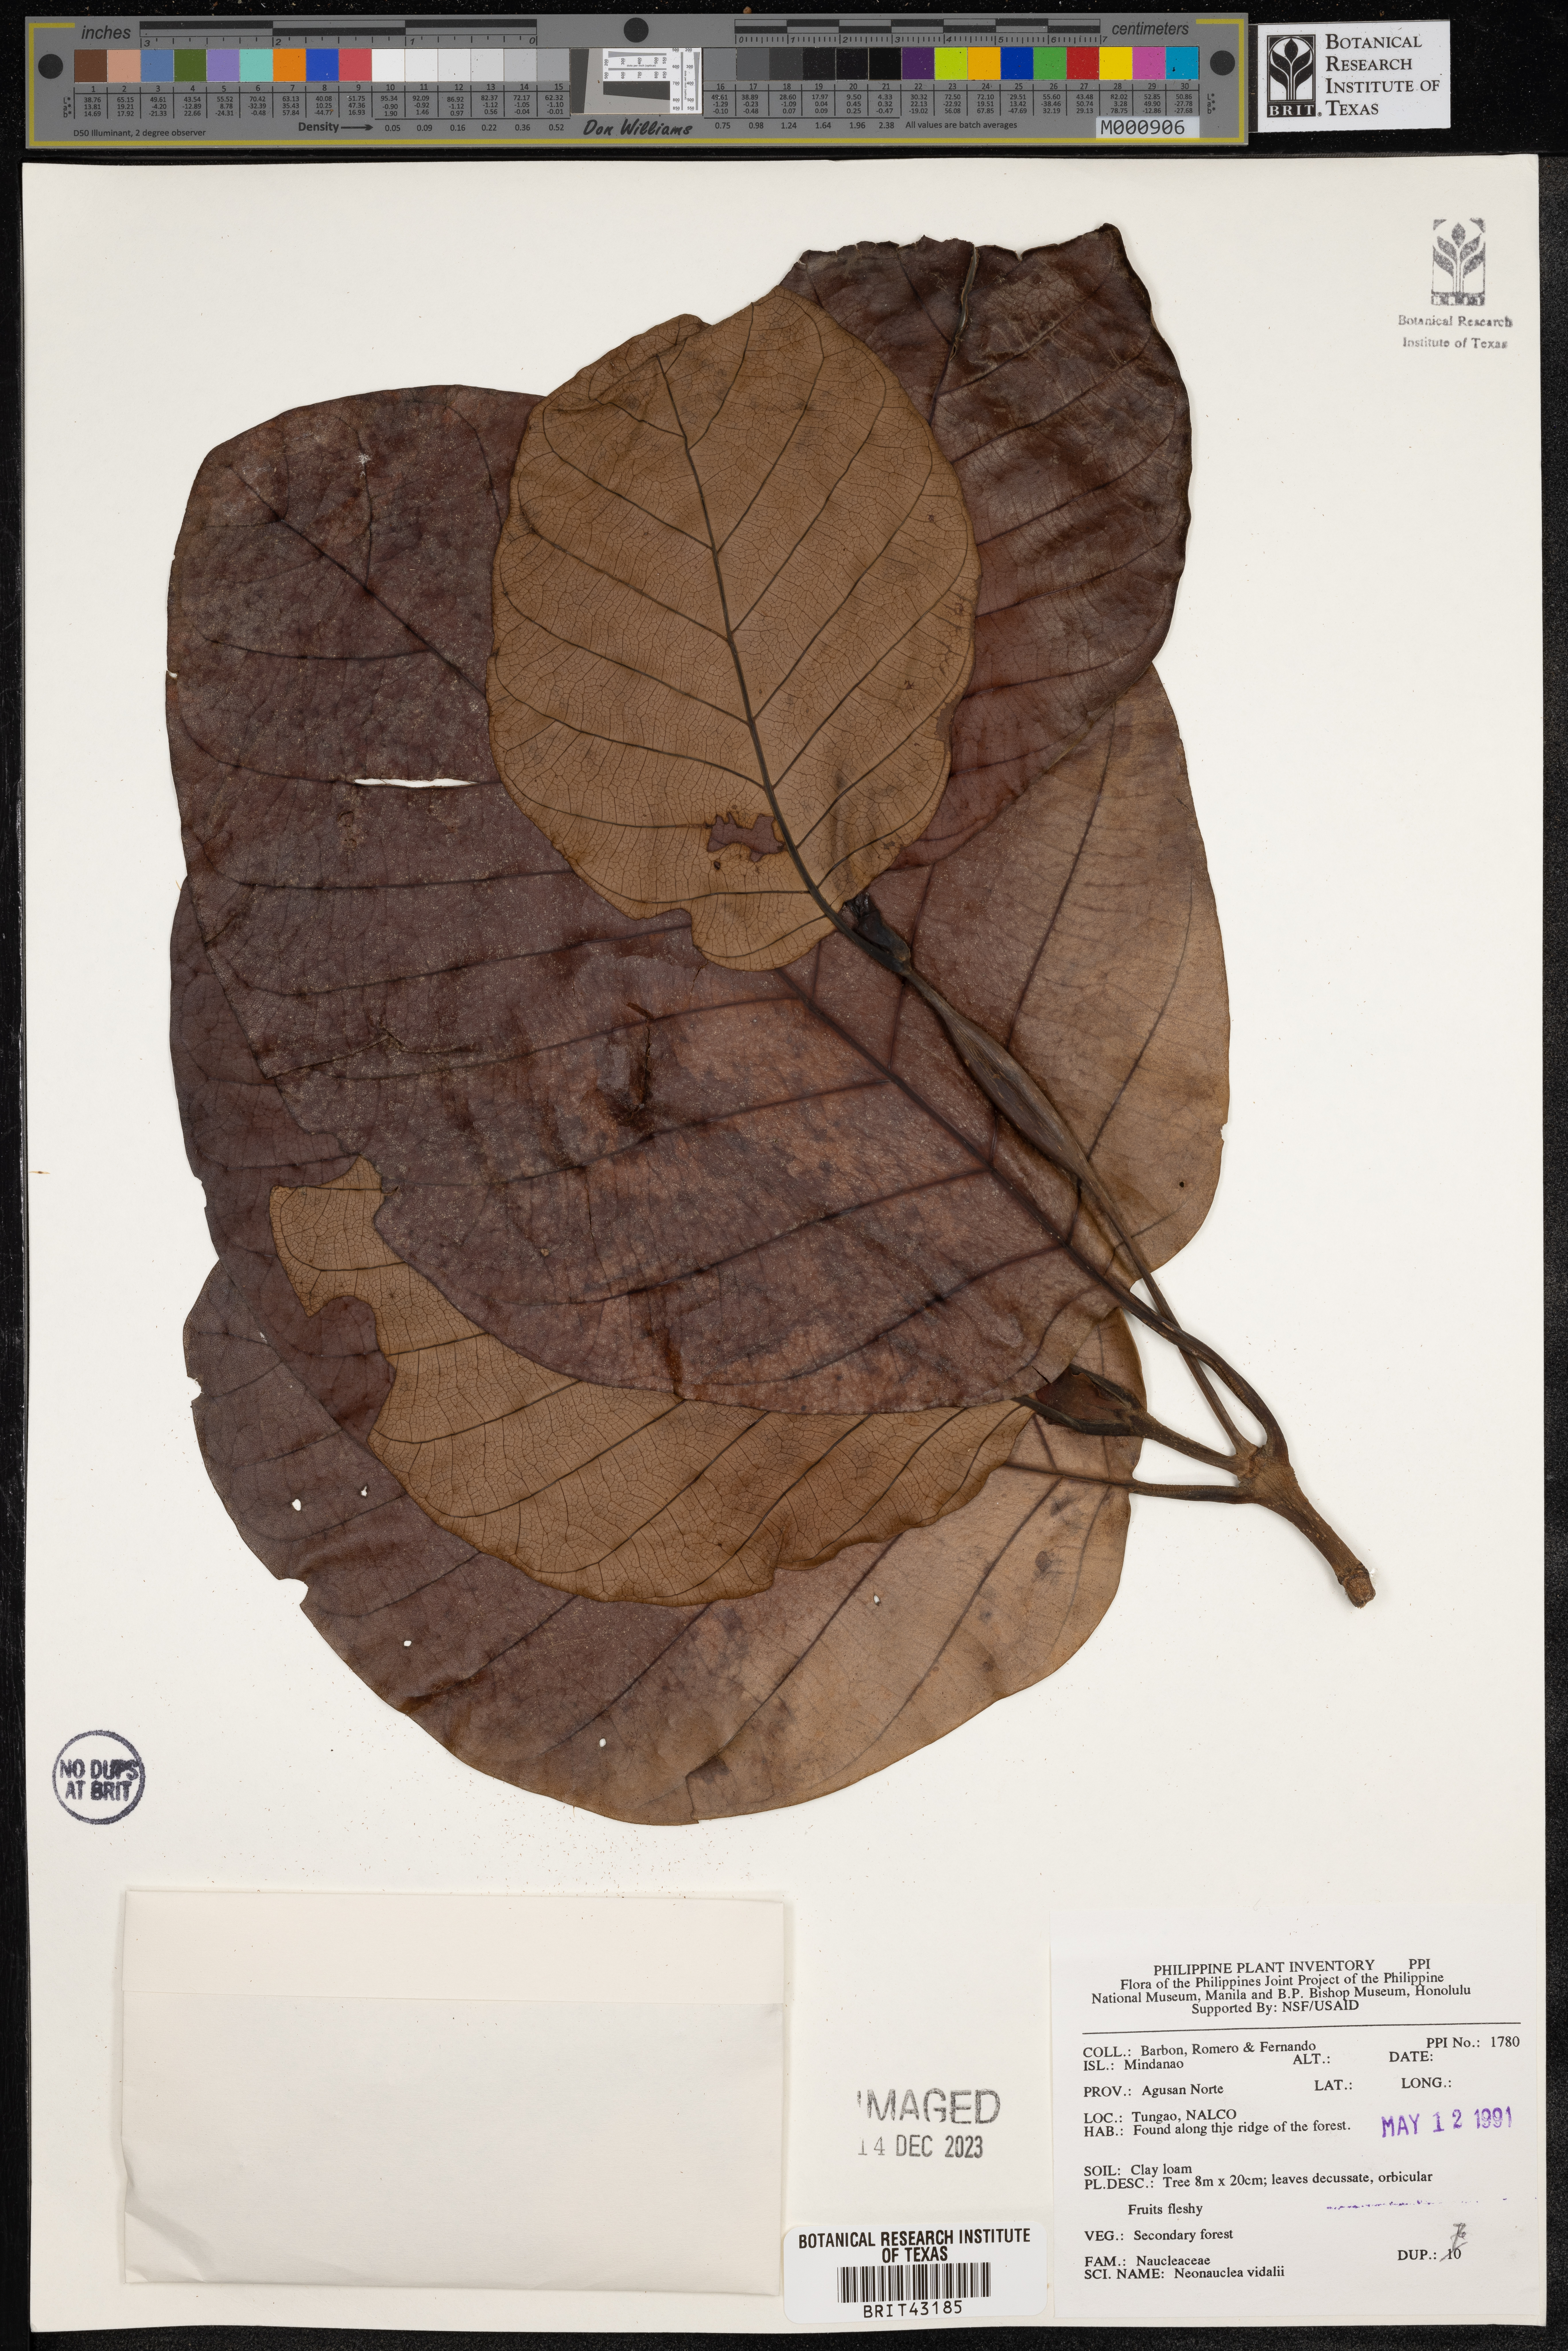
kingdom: Plantae
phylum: Tracheophyta
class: Magnoliopsida
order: Gentianales
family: Rubiaceae
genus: Neonauclea
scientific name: Neonauclea bartlingii
